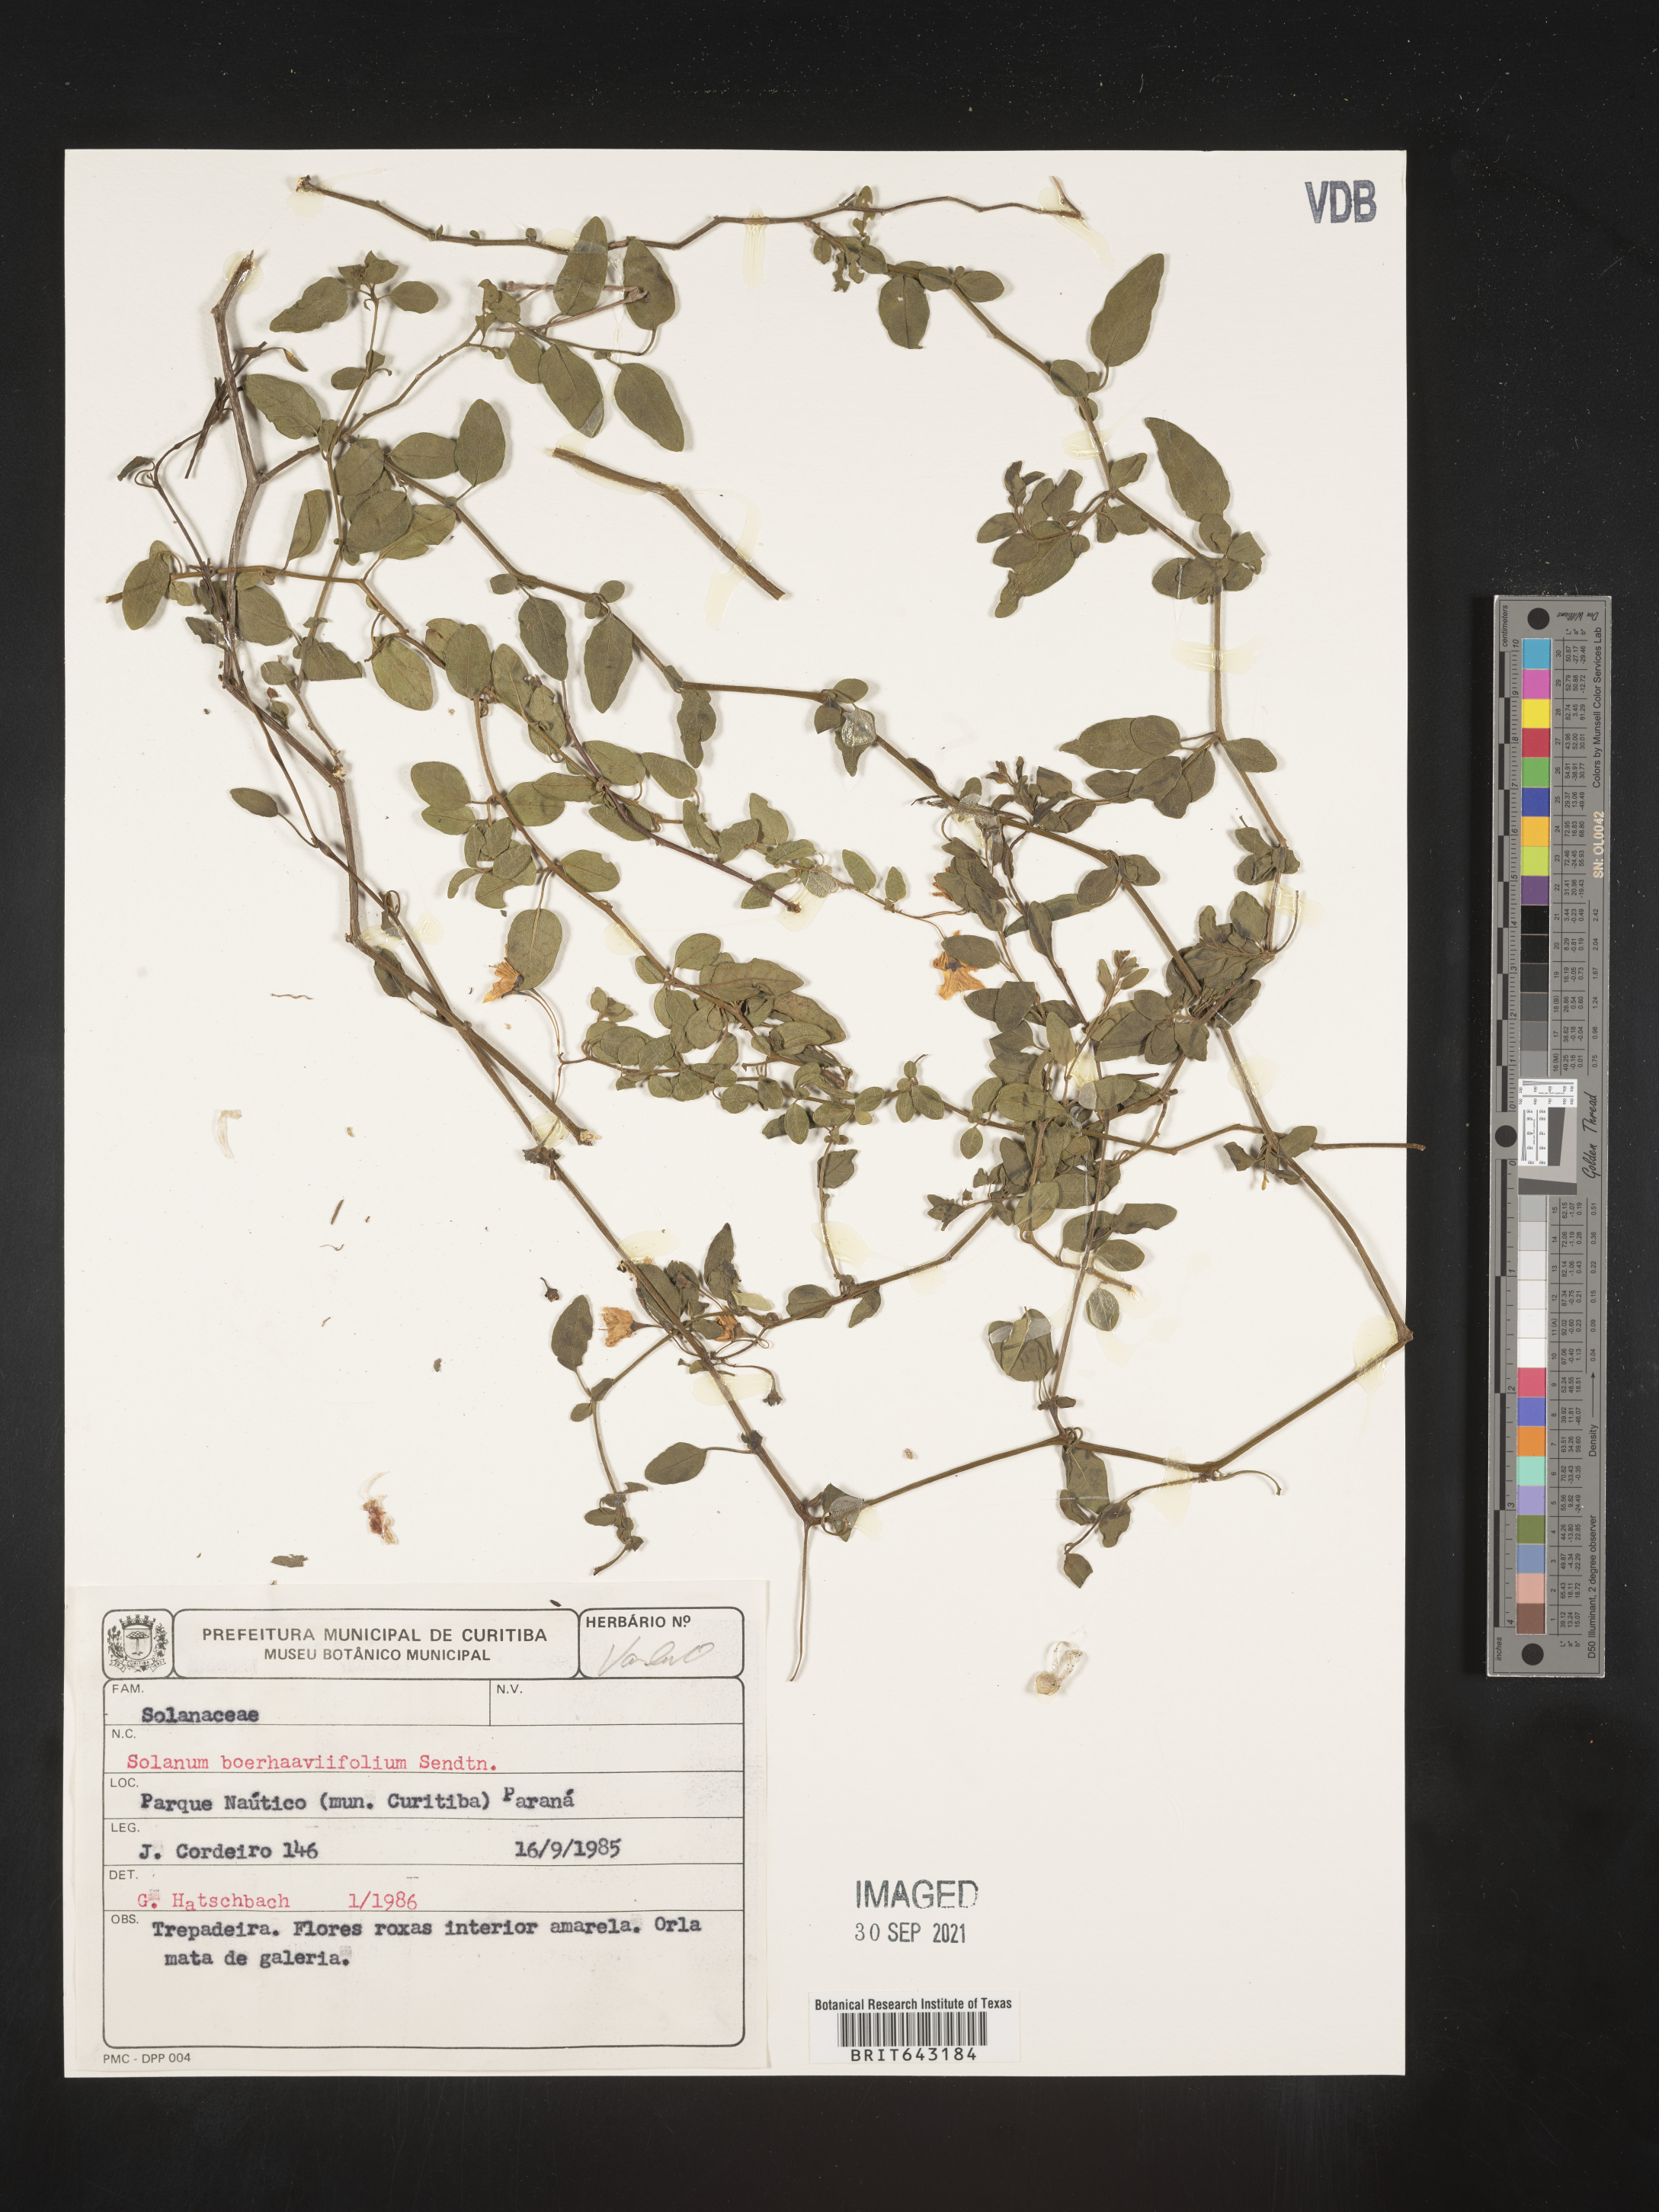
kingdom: Plantae
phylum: Tracheophyta
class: Magnoliopsida
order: Solanales
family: Solanaceae
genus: Solanum
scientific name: Solanum
